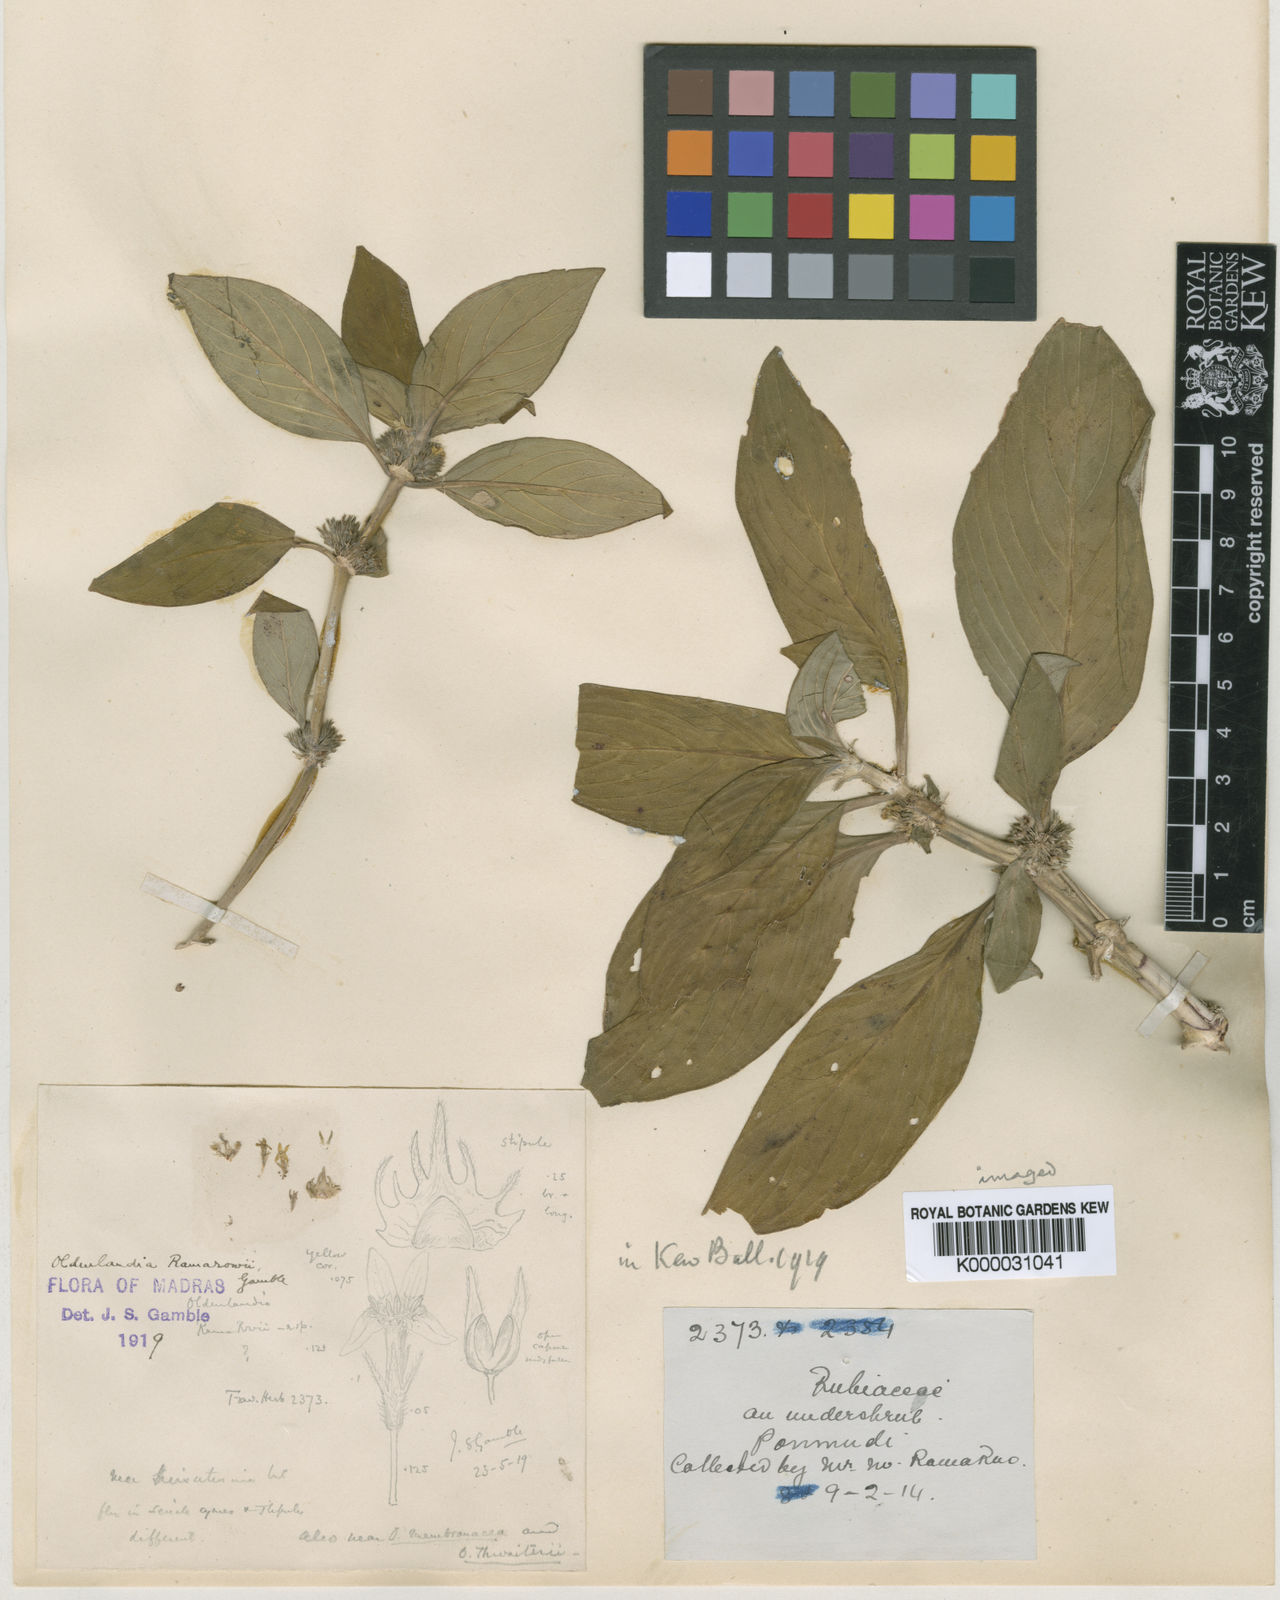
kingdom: Plantae
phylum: Tracheophyta
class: Magnoliopsida
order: Gentianales
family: Rubiaceae
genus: Hedyotis
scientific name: Hedyotis ramarowii
